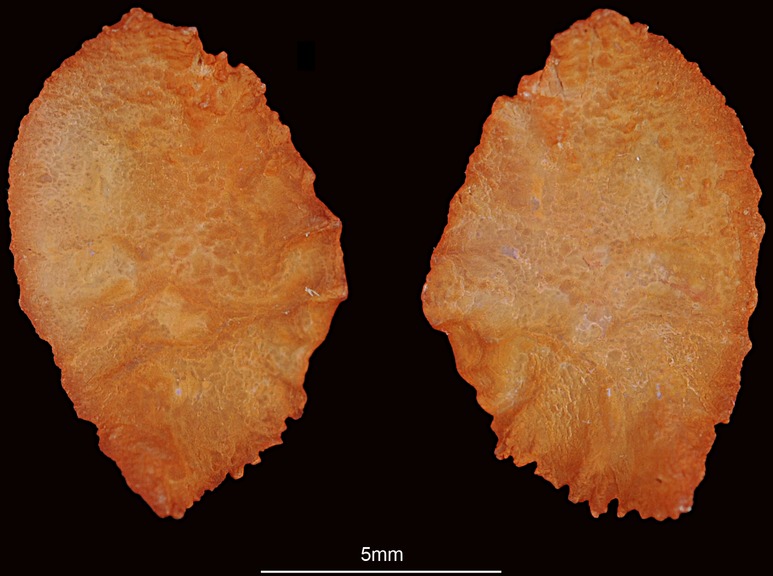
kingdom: Animalia
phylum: Chordata
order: Perciformes
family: Lethrinidae
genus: Lethrinus
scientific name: Lethrinus nebulosus
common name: Spangled emperor
